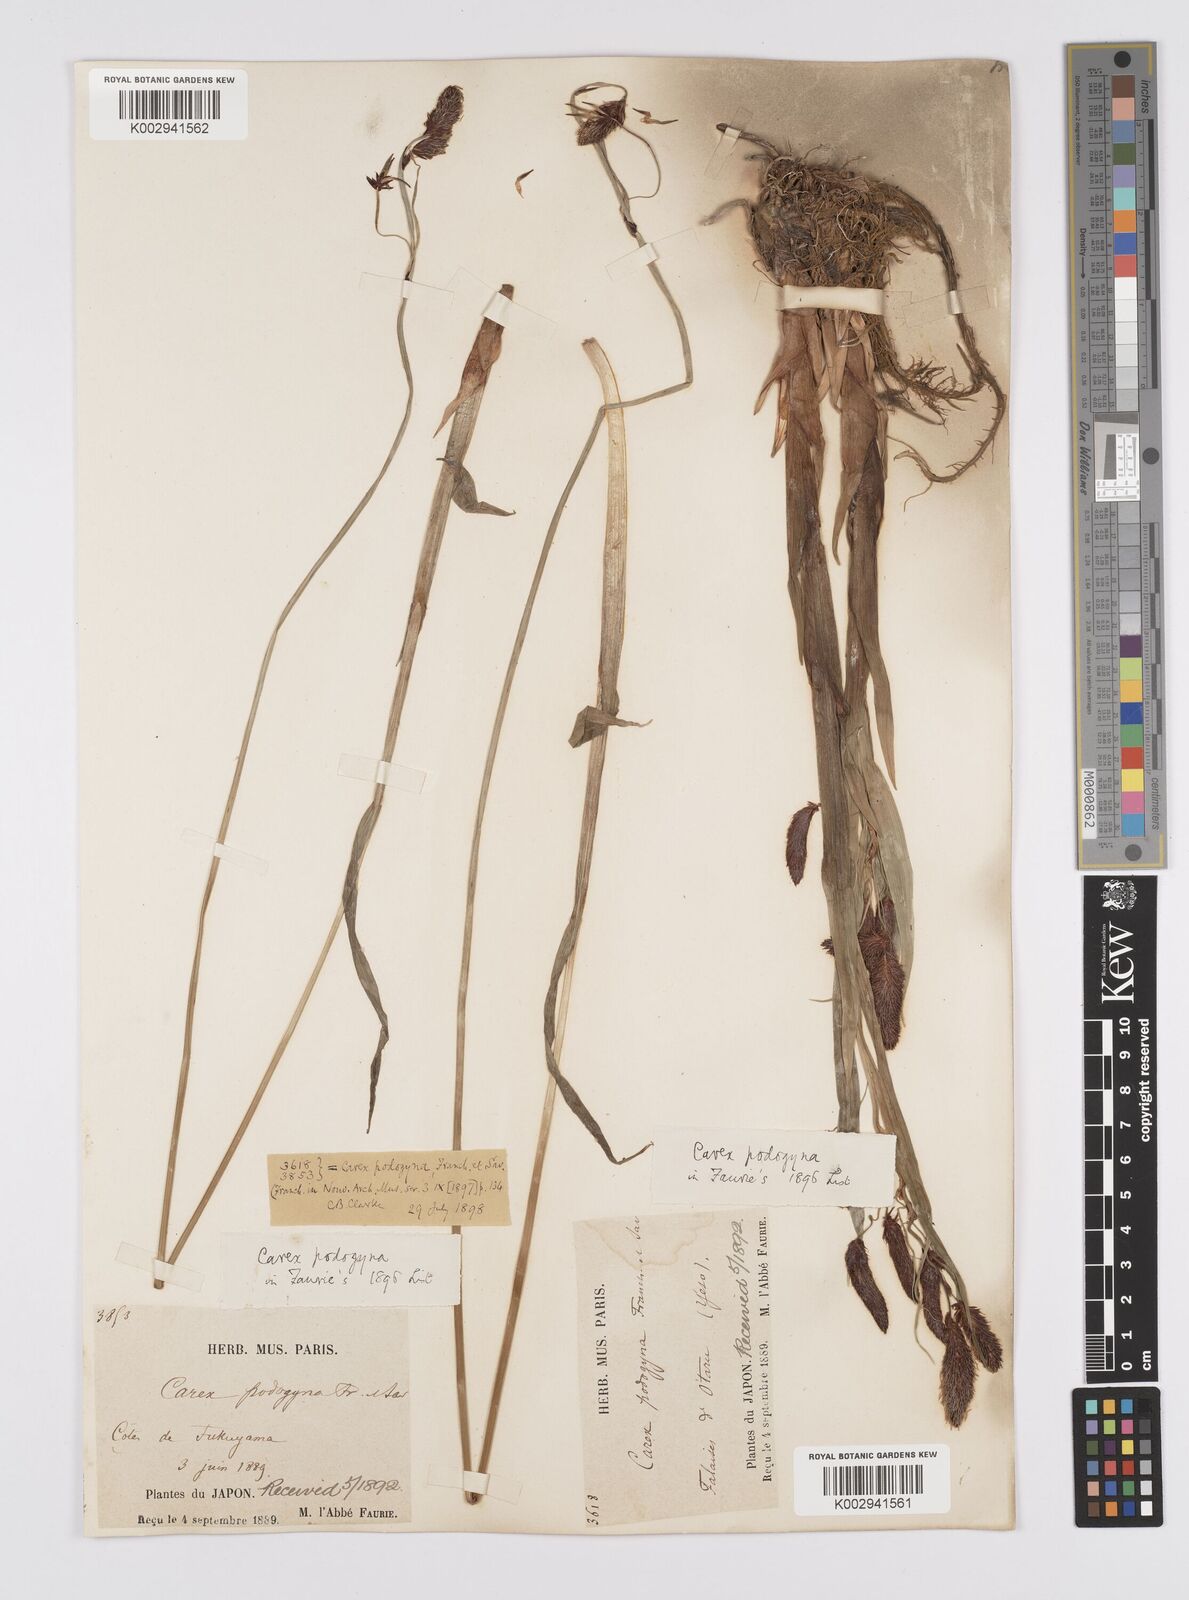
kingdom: Plantae
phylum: Tracheophyta
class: Liliopsida
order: Poales
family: Cyperaceae
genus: Carex
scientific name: Carex podogyna
